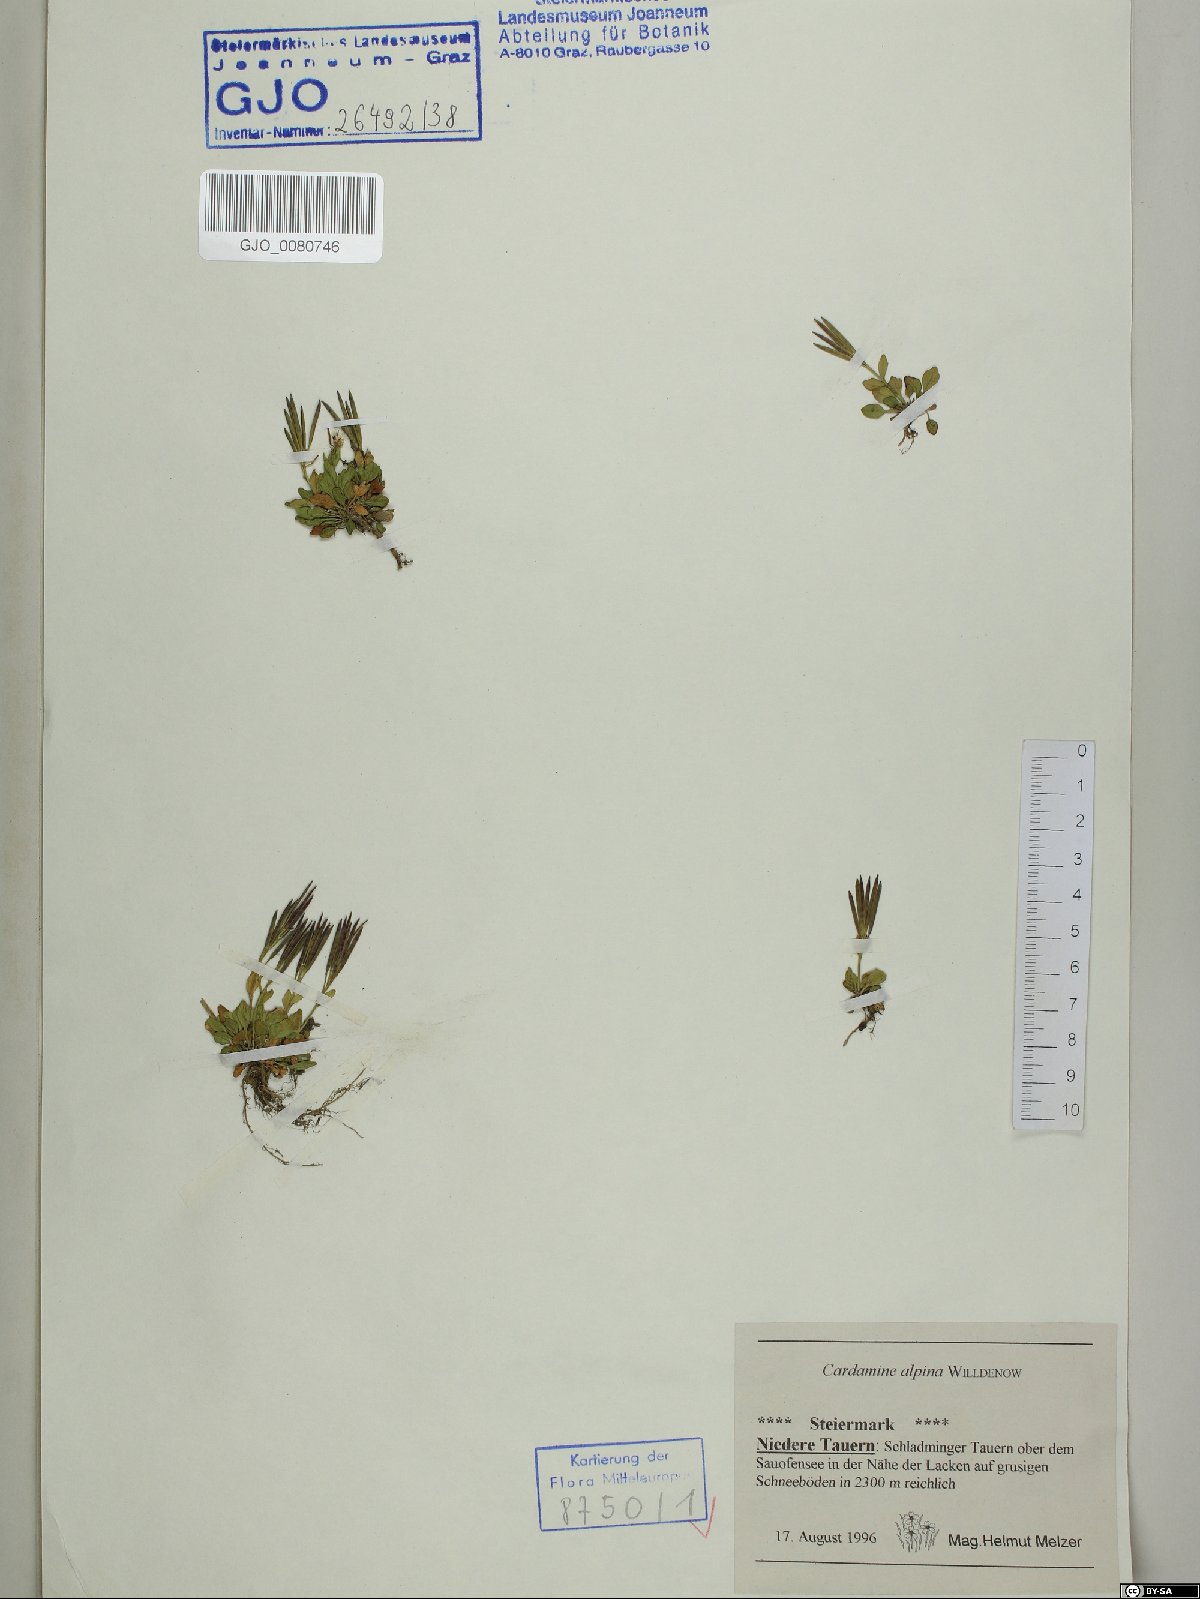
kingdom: Plantae
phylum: Tracheophyta
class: Magnoliopsida
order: Brassicales
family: Brassicaceae
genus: Cardamine
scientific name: Cardamine bellidifolia
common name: Alpine bittercress
